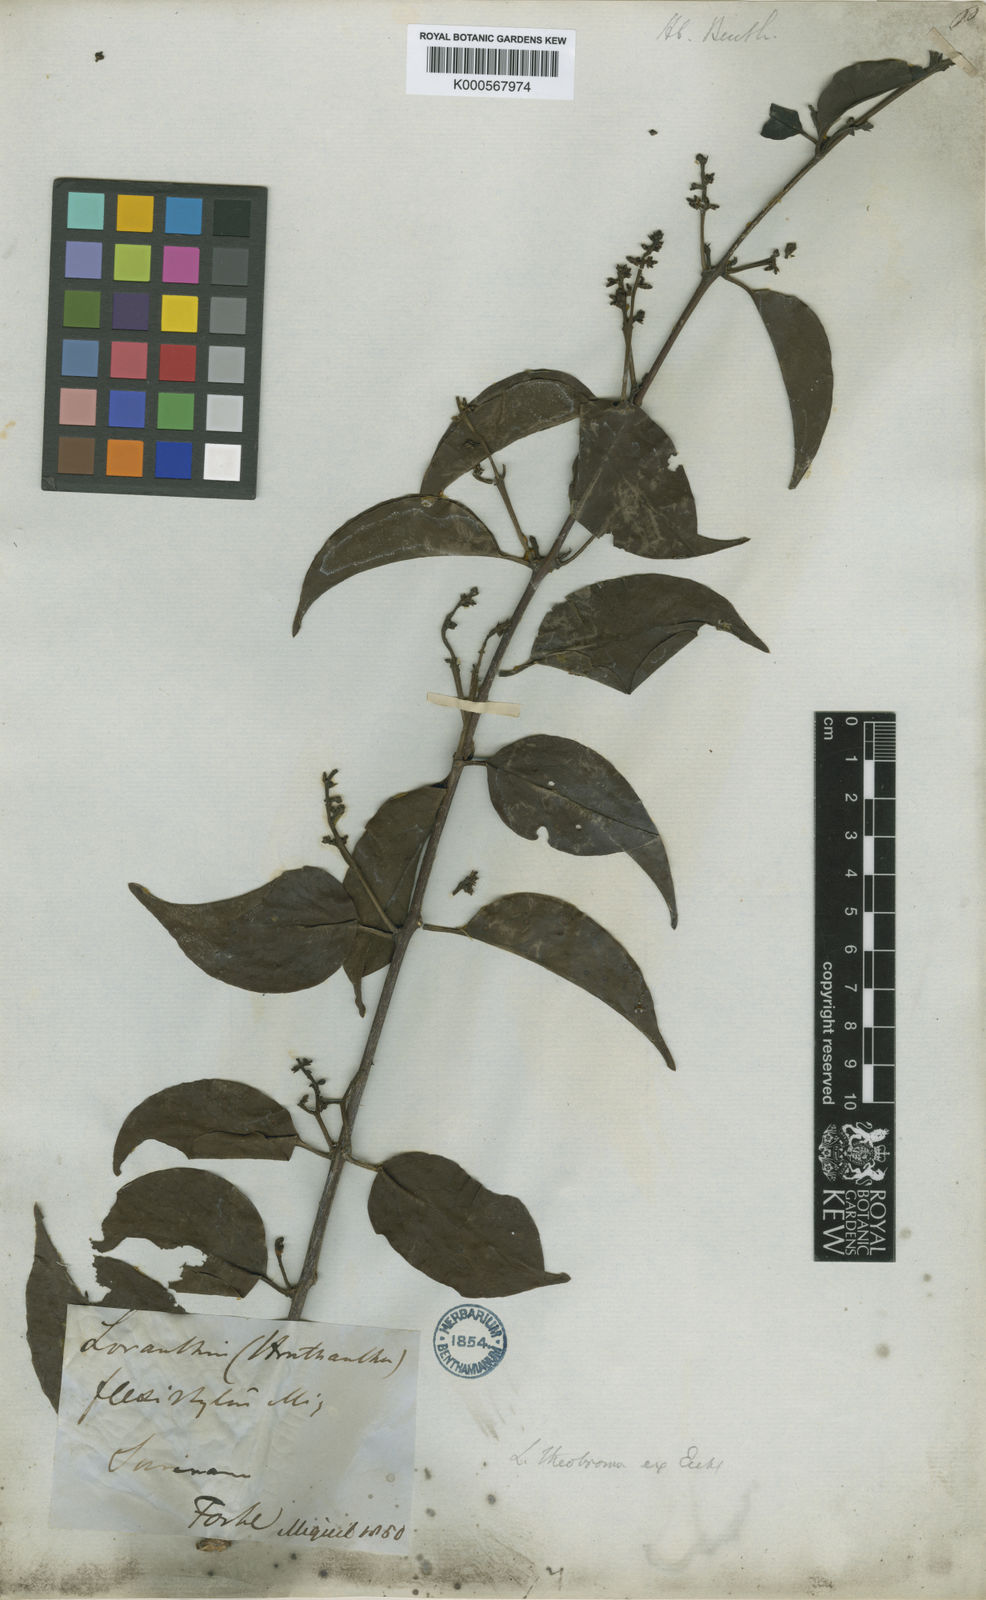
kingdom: Plantae
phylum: Tracheophyta
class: Magnoliopsida
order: Santalales
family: Loranthaceae
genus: Passovia
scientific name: Passovia pedunculata
